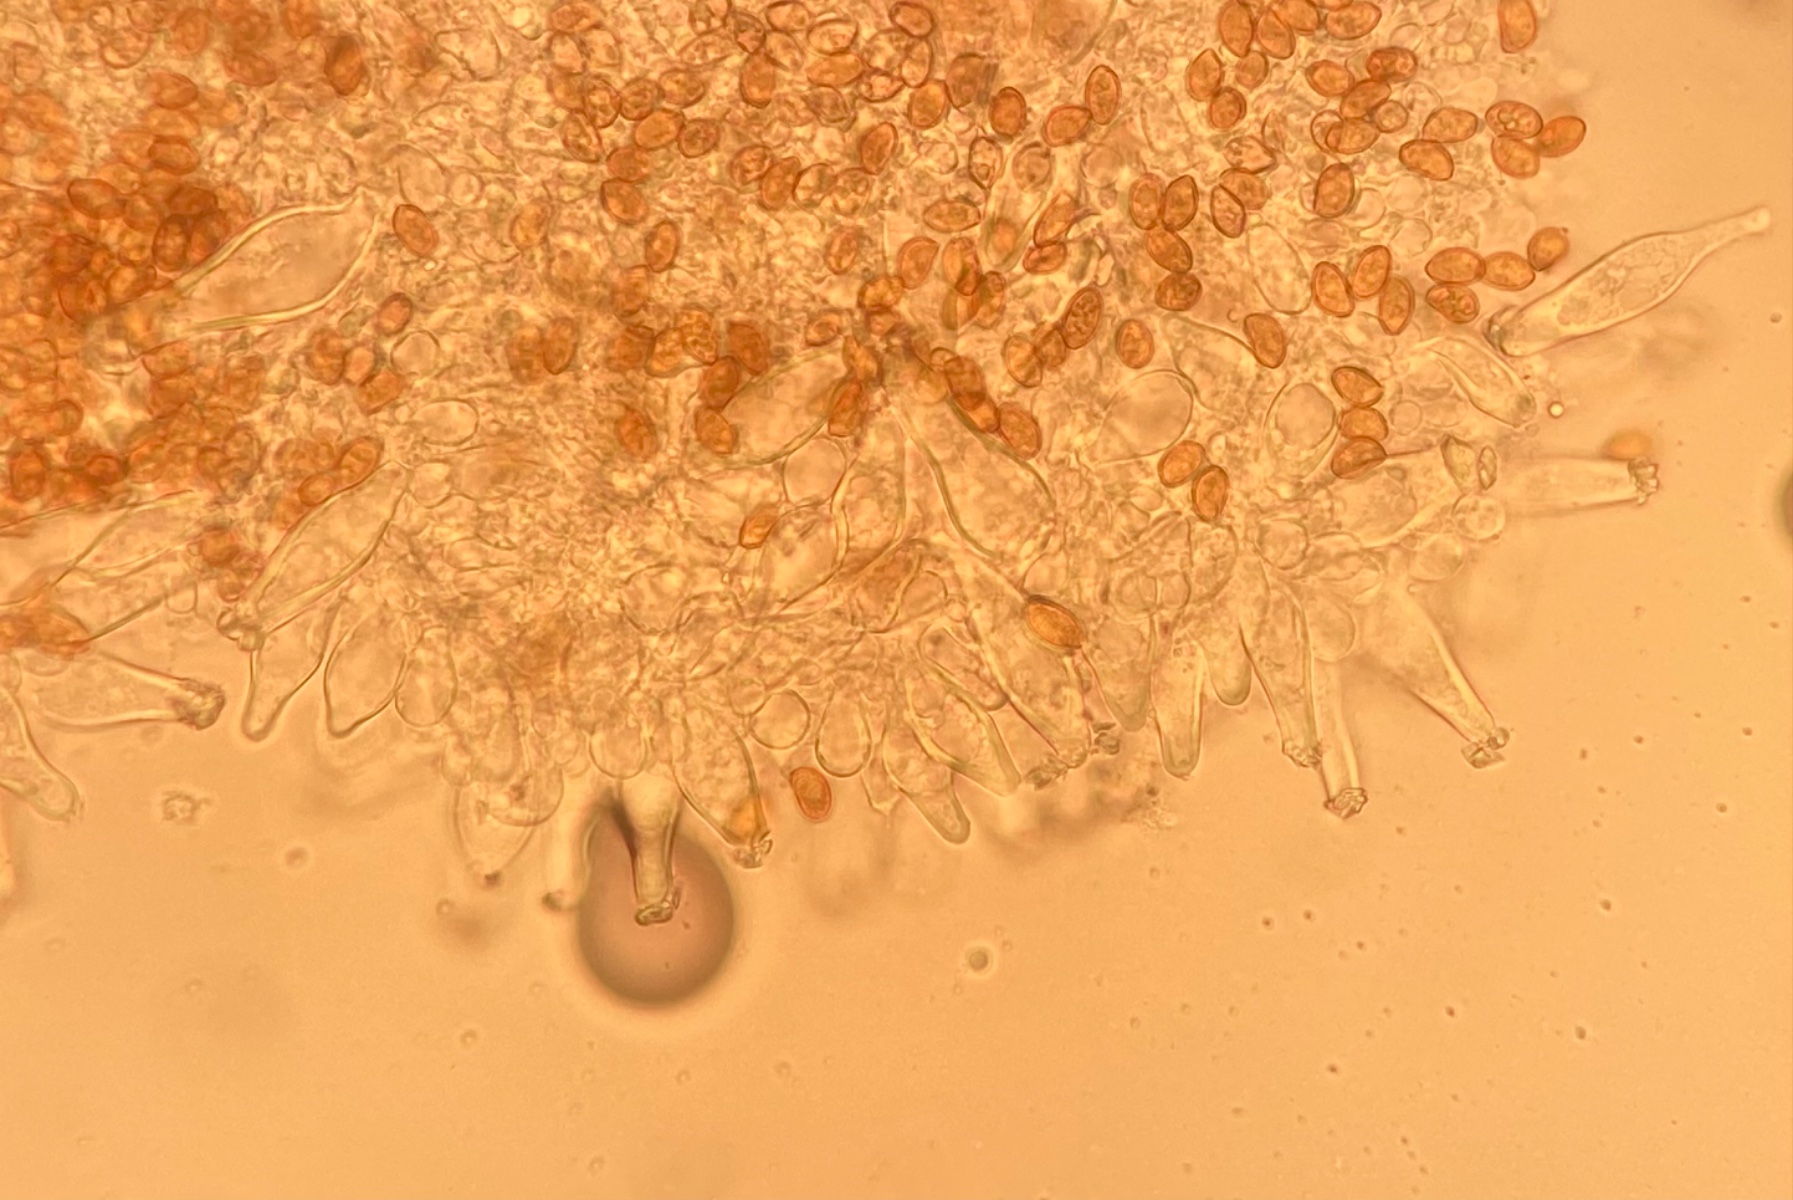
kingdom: Fungi
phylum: Basidiomycota
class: Agaricomycetes
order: Agaricales
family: Inocybaceae
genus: Inocybe
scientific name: Inocybe mycenoides
